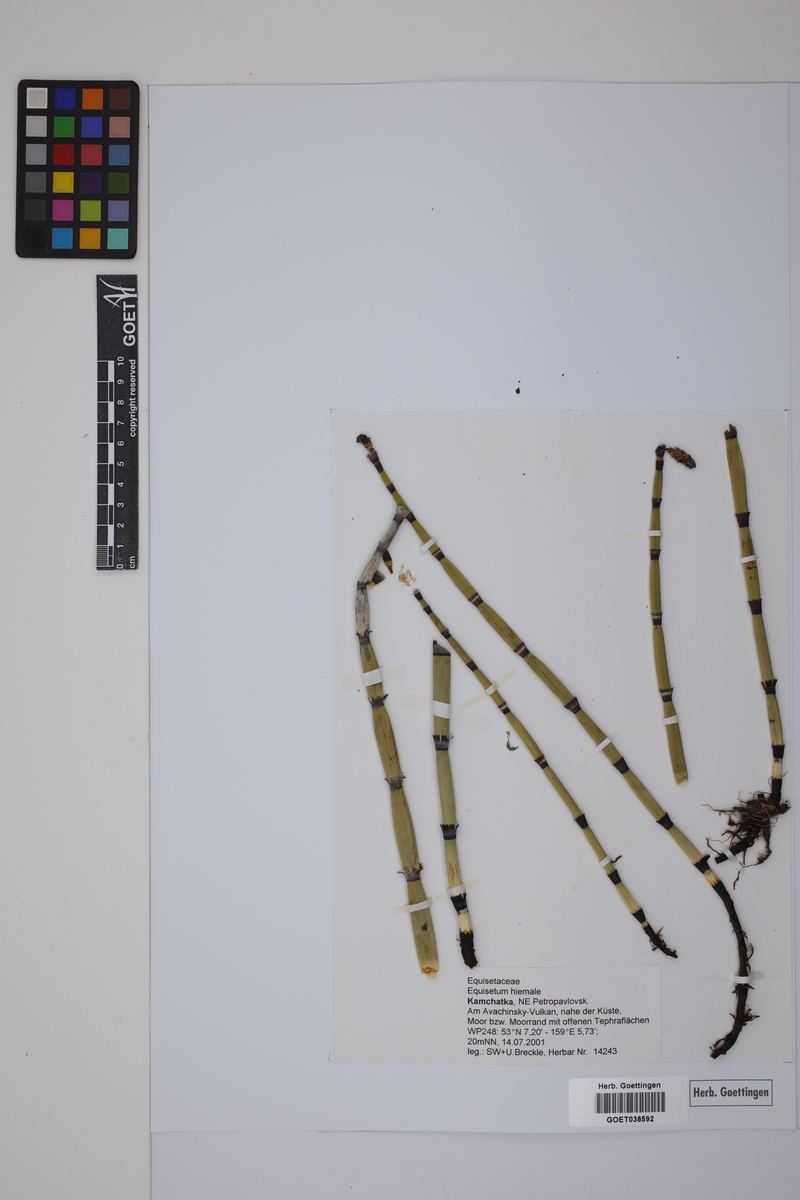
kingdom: Plantae
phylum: Tracheophyta
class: Polypodiopsida
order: Equisetales
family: Equisetaceae
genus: Equisetum
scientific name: Equisetum hyemale
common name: Rough horsetail
